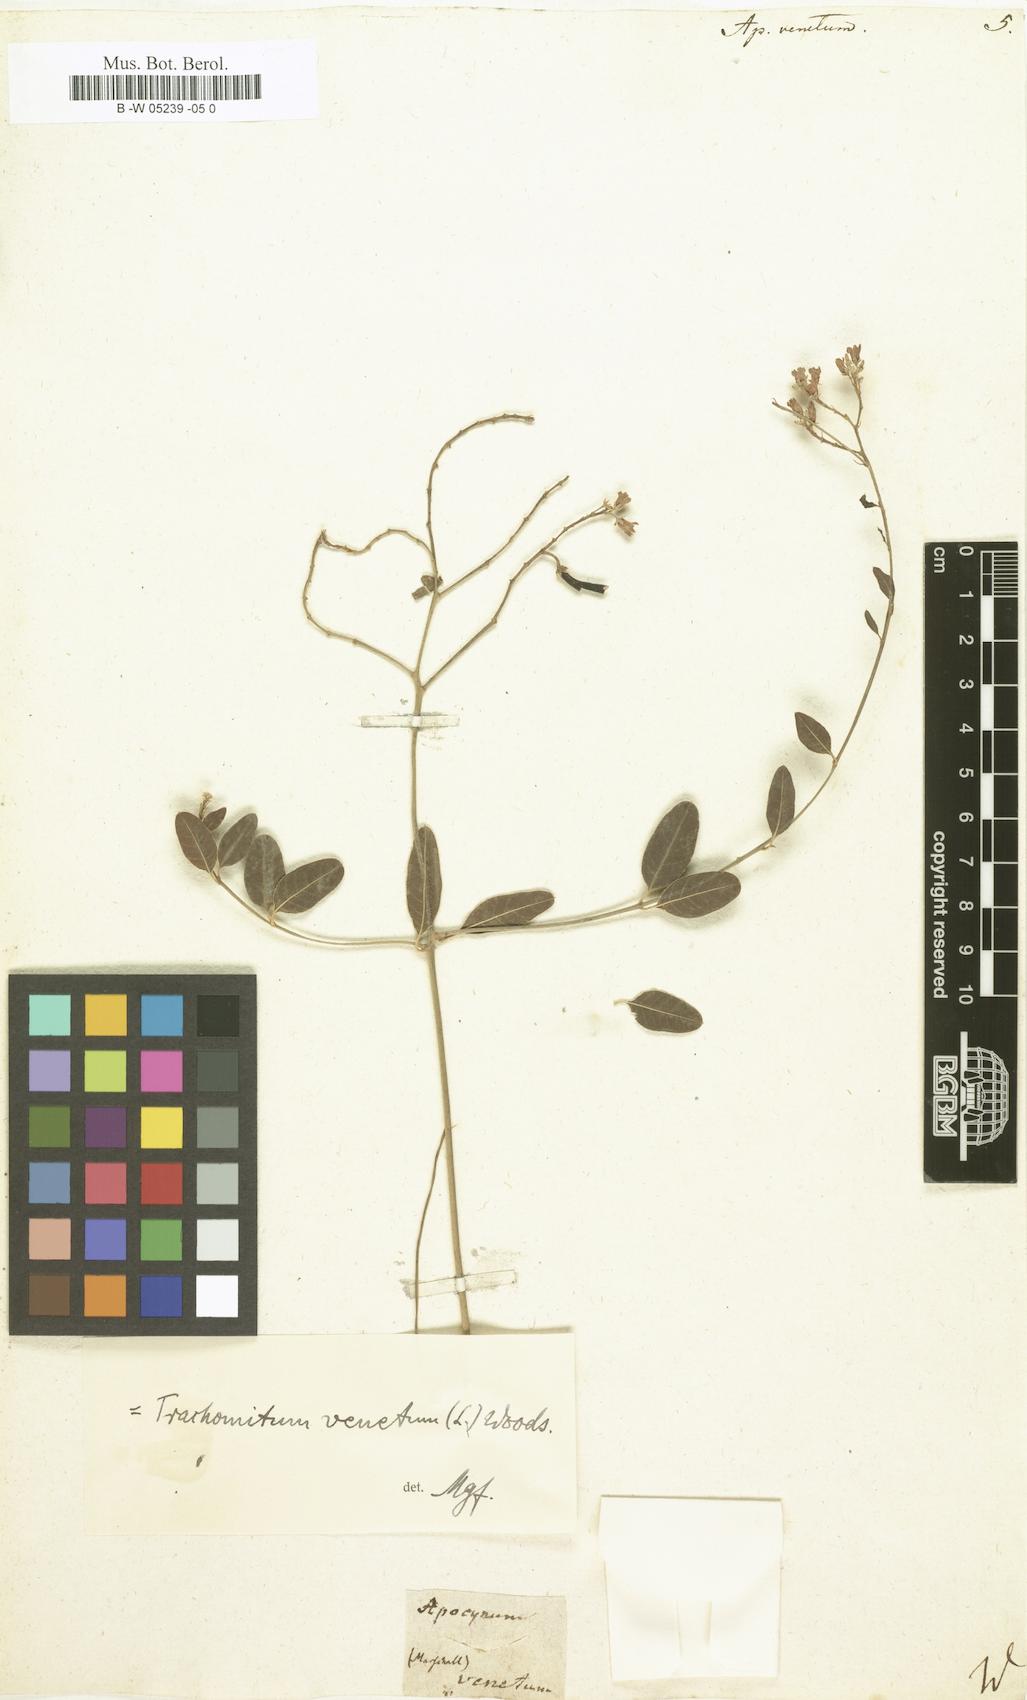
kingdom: Plantae
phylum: Tracheophyta
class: Magnoliopsida
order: Gentianales
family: Apocynaceae
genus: Poacynum
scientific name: Poacynum venetum
